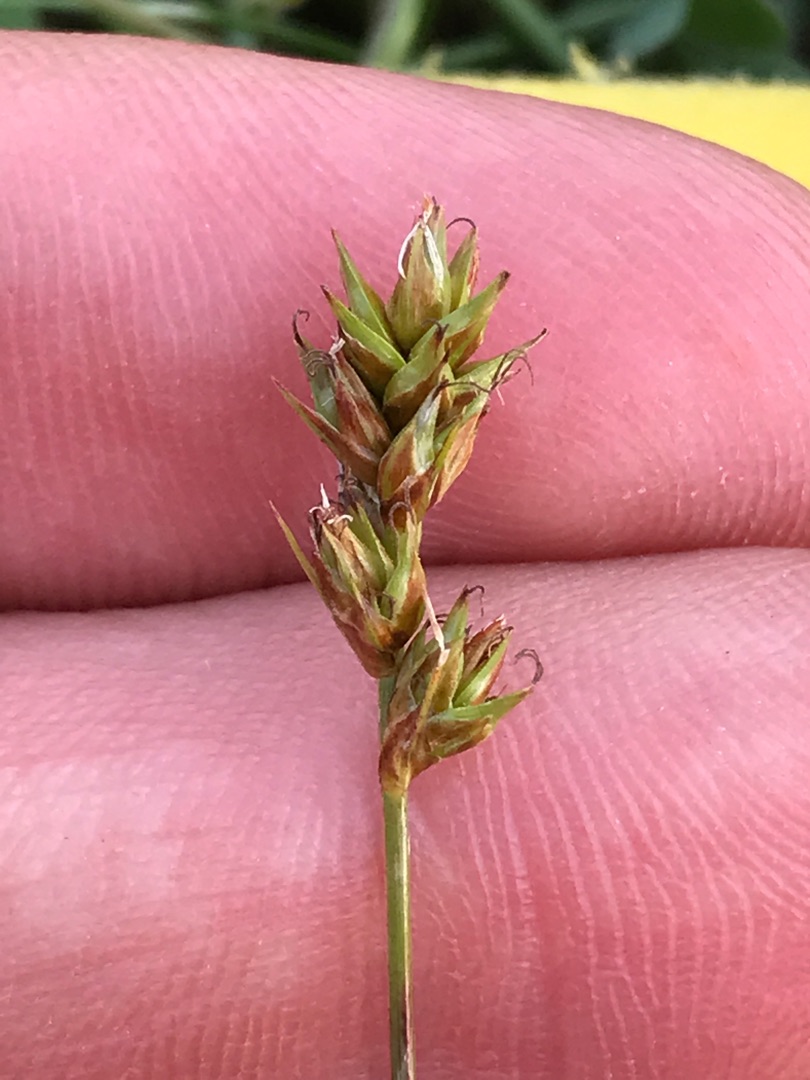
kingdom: Plantae
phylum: Tracheophyta
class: Liliopsida
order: Poales
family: Cyperaceae
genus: Carex
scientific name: Carex spicata
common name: Spidskapslet star
